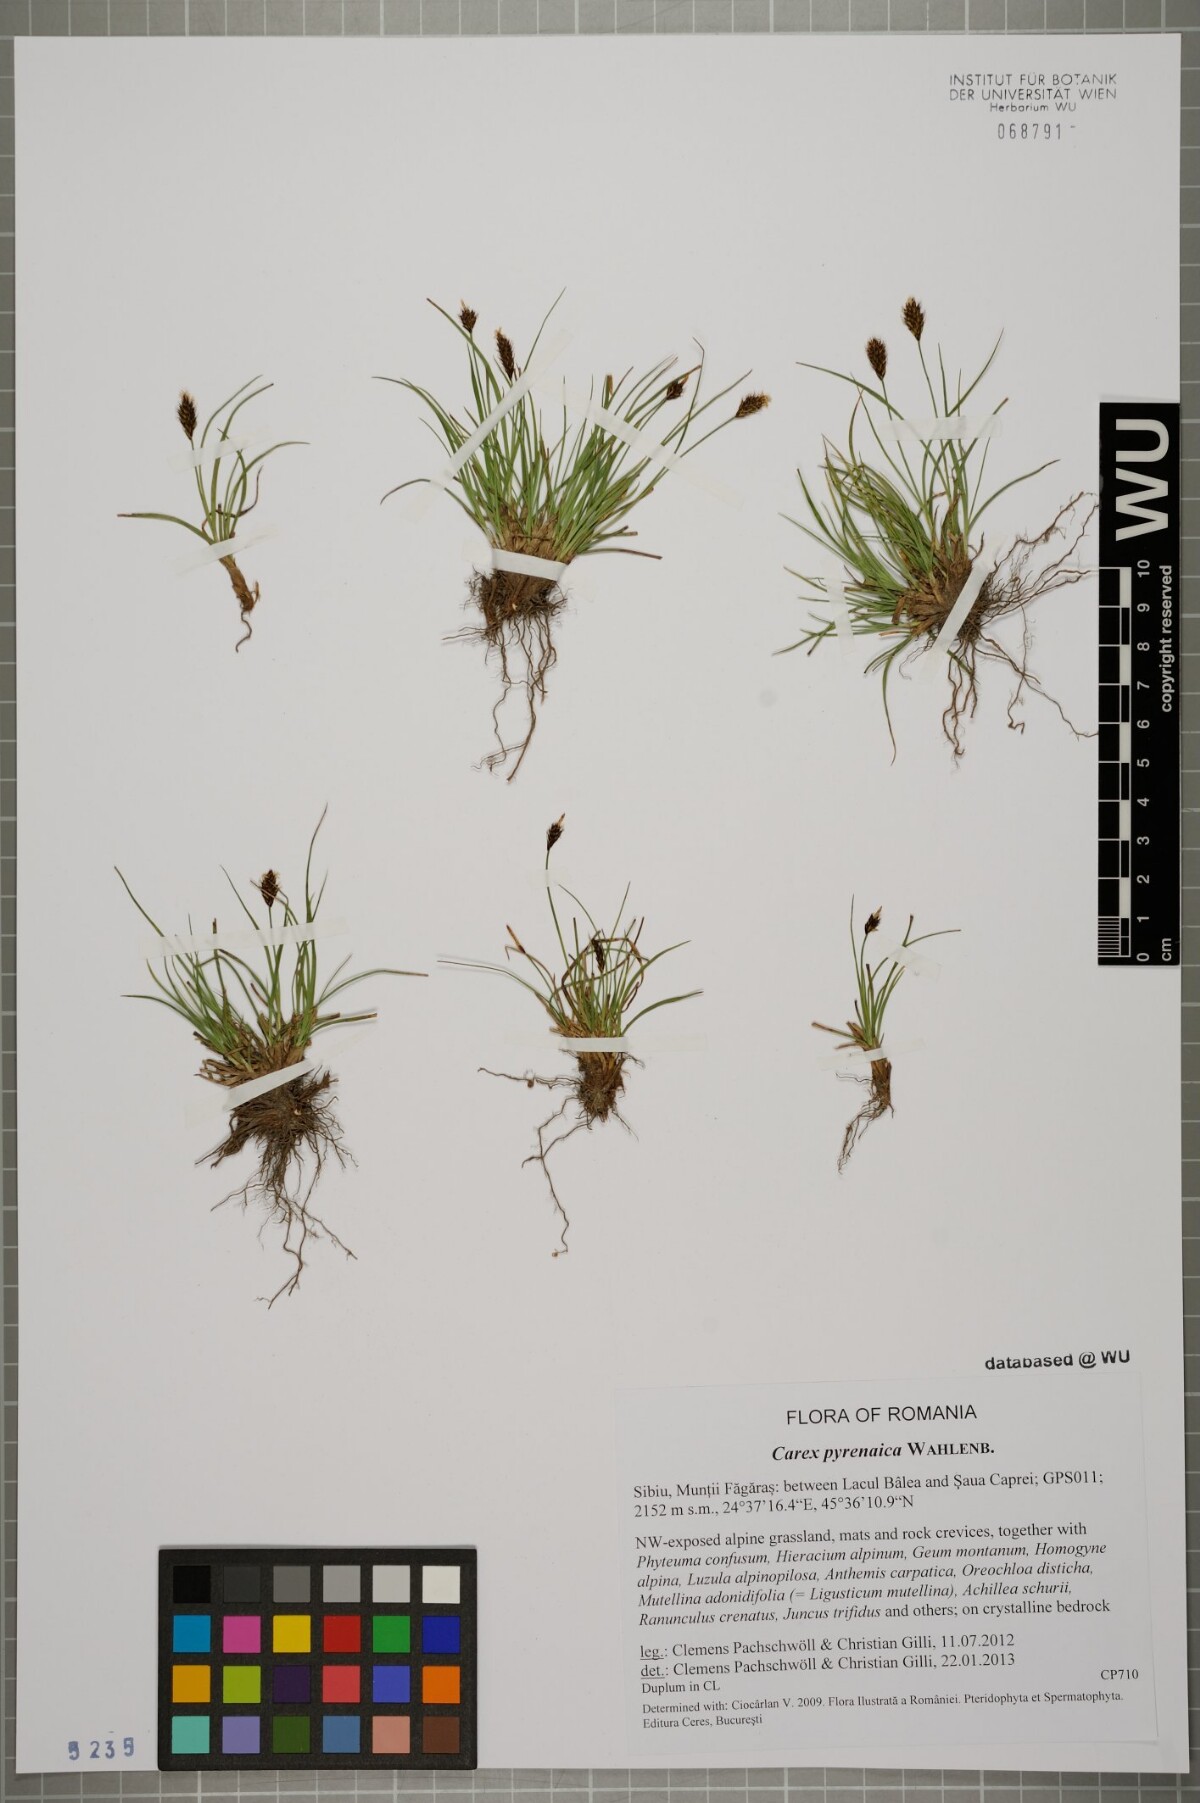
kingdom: Plantae
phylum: Tracheophyta
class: Liliopsida
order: Poales
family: Cyperaceae
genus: Carex
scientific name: Carex pyrenaica
